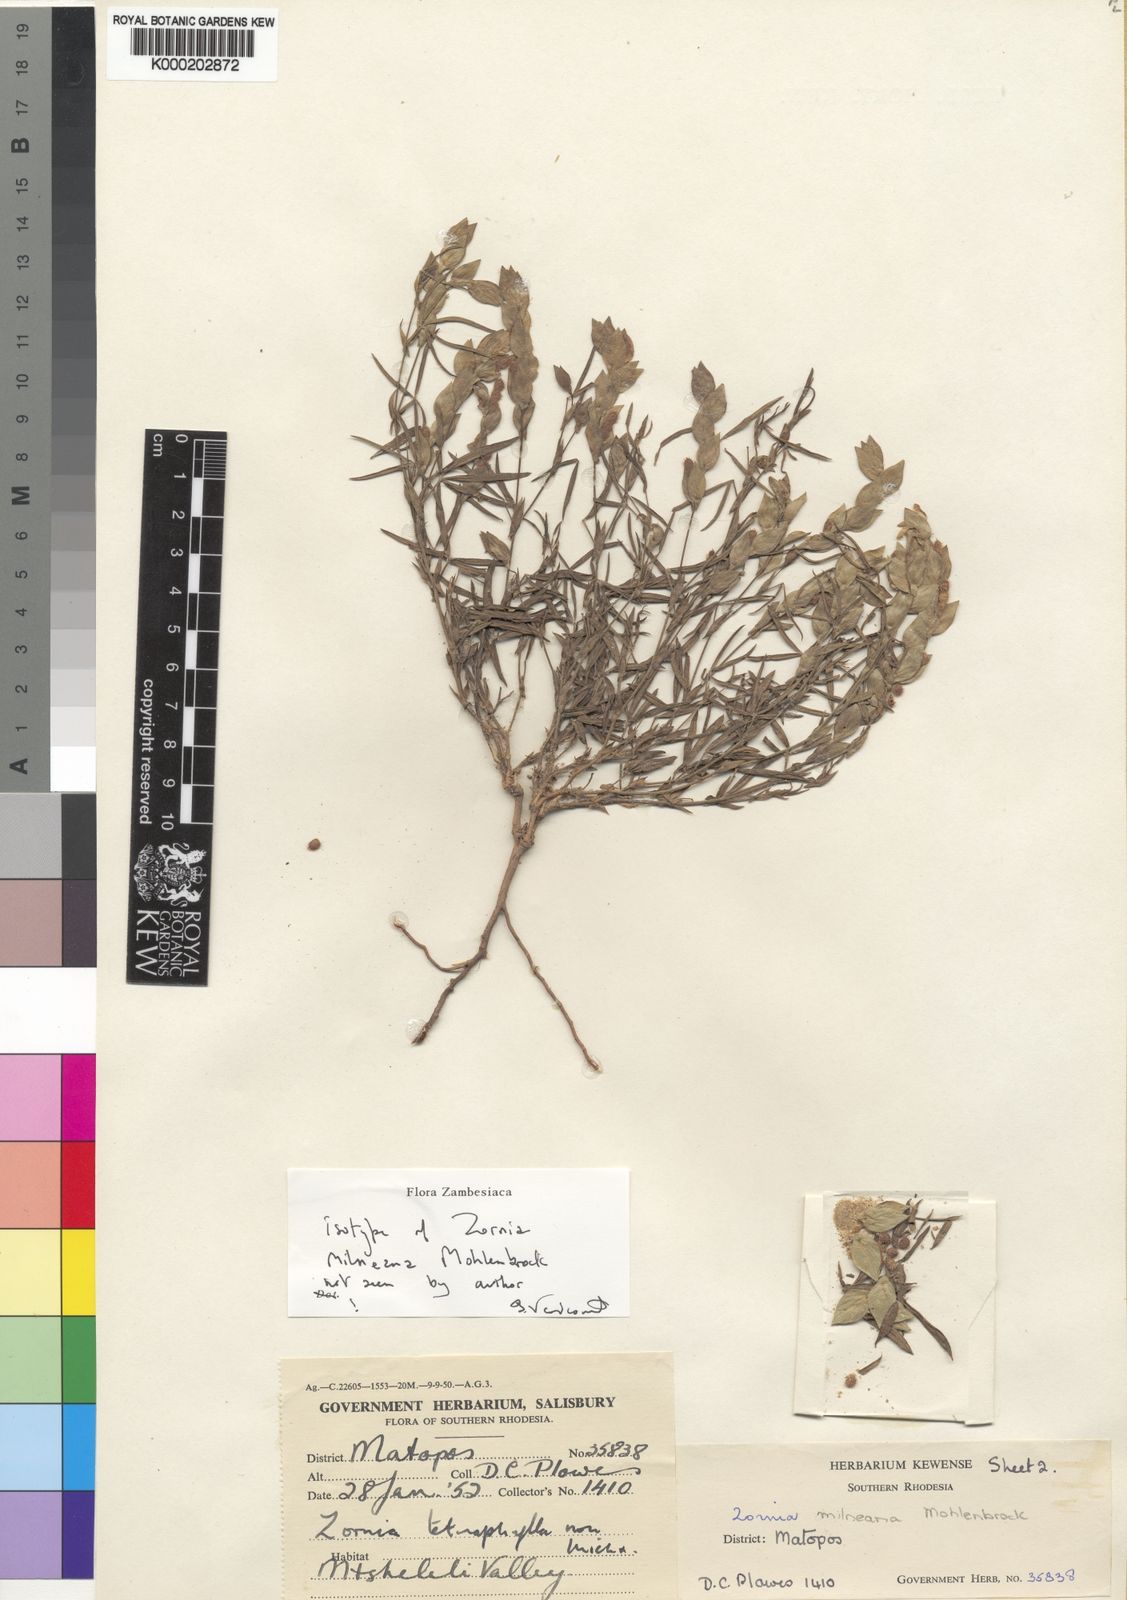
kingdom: Plantae
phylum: Tracheophyta
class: Magnoliopsida
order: Fabales
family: Fabaceae
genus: Zornia
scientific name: Zornia milneana
